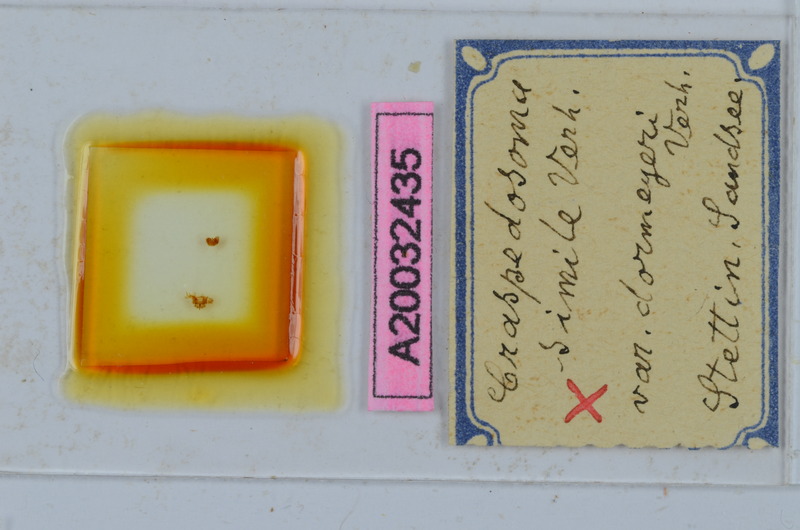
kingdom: Animalia
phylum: Arthropoda
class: Diplopoda
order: Chordeumatida
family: Craspedosomatidae
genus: Craspedosoma
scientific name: Craspedosoma rawlinsii
